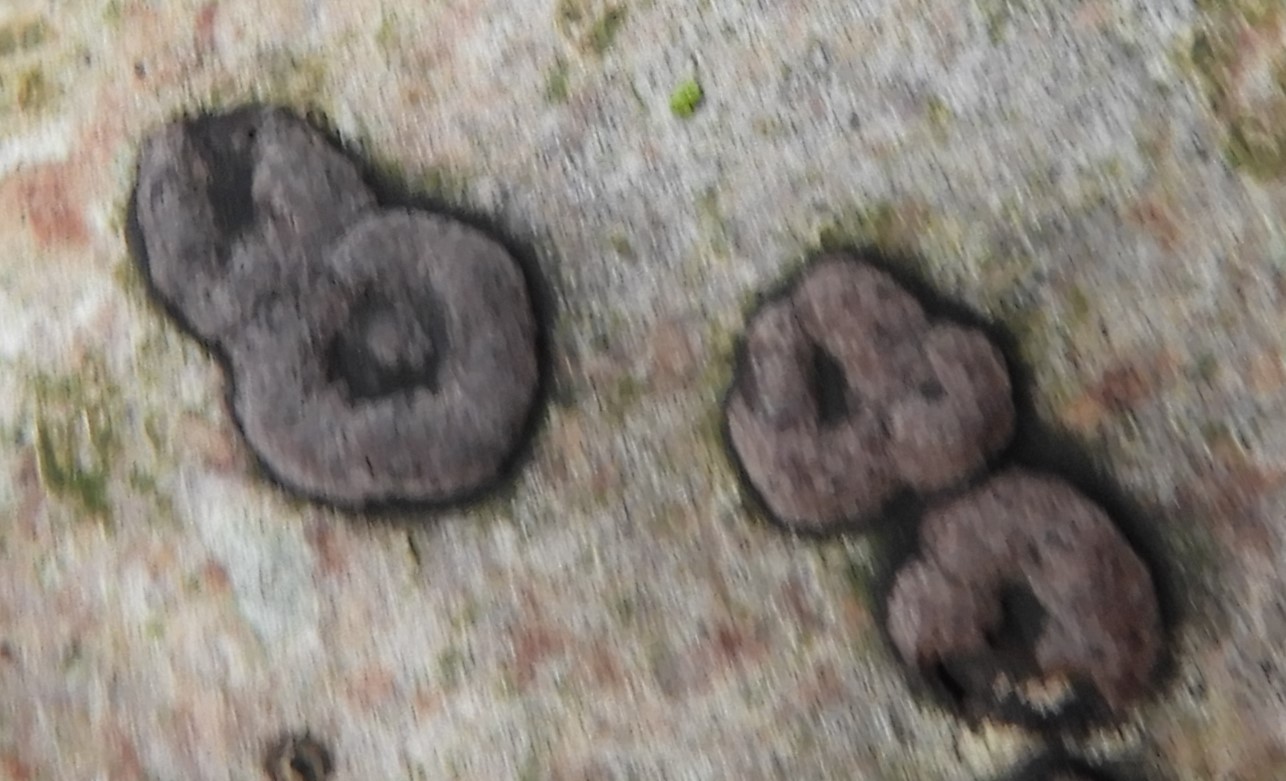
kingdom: Fungi
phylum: Ascomycota
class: Sordariomycetes
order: Xylariales
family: Hypoxylaceae
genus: Hypoxylon
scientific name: Hypoxylon fuscum
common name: kegleformet kulbær
